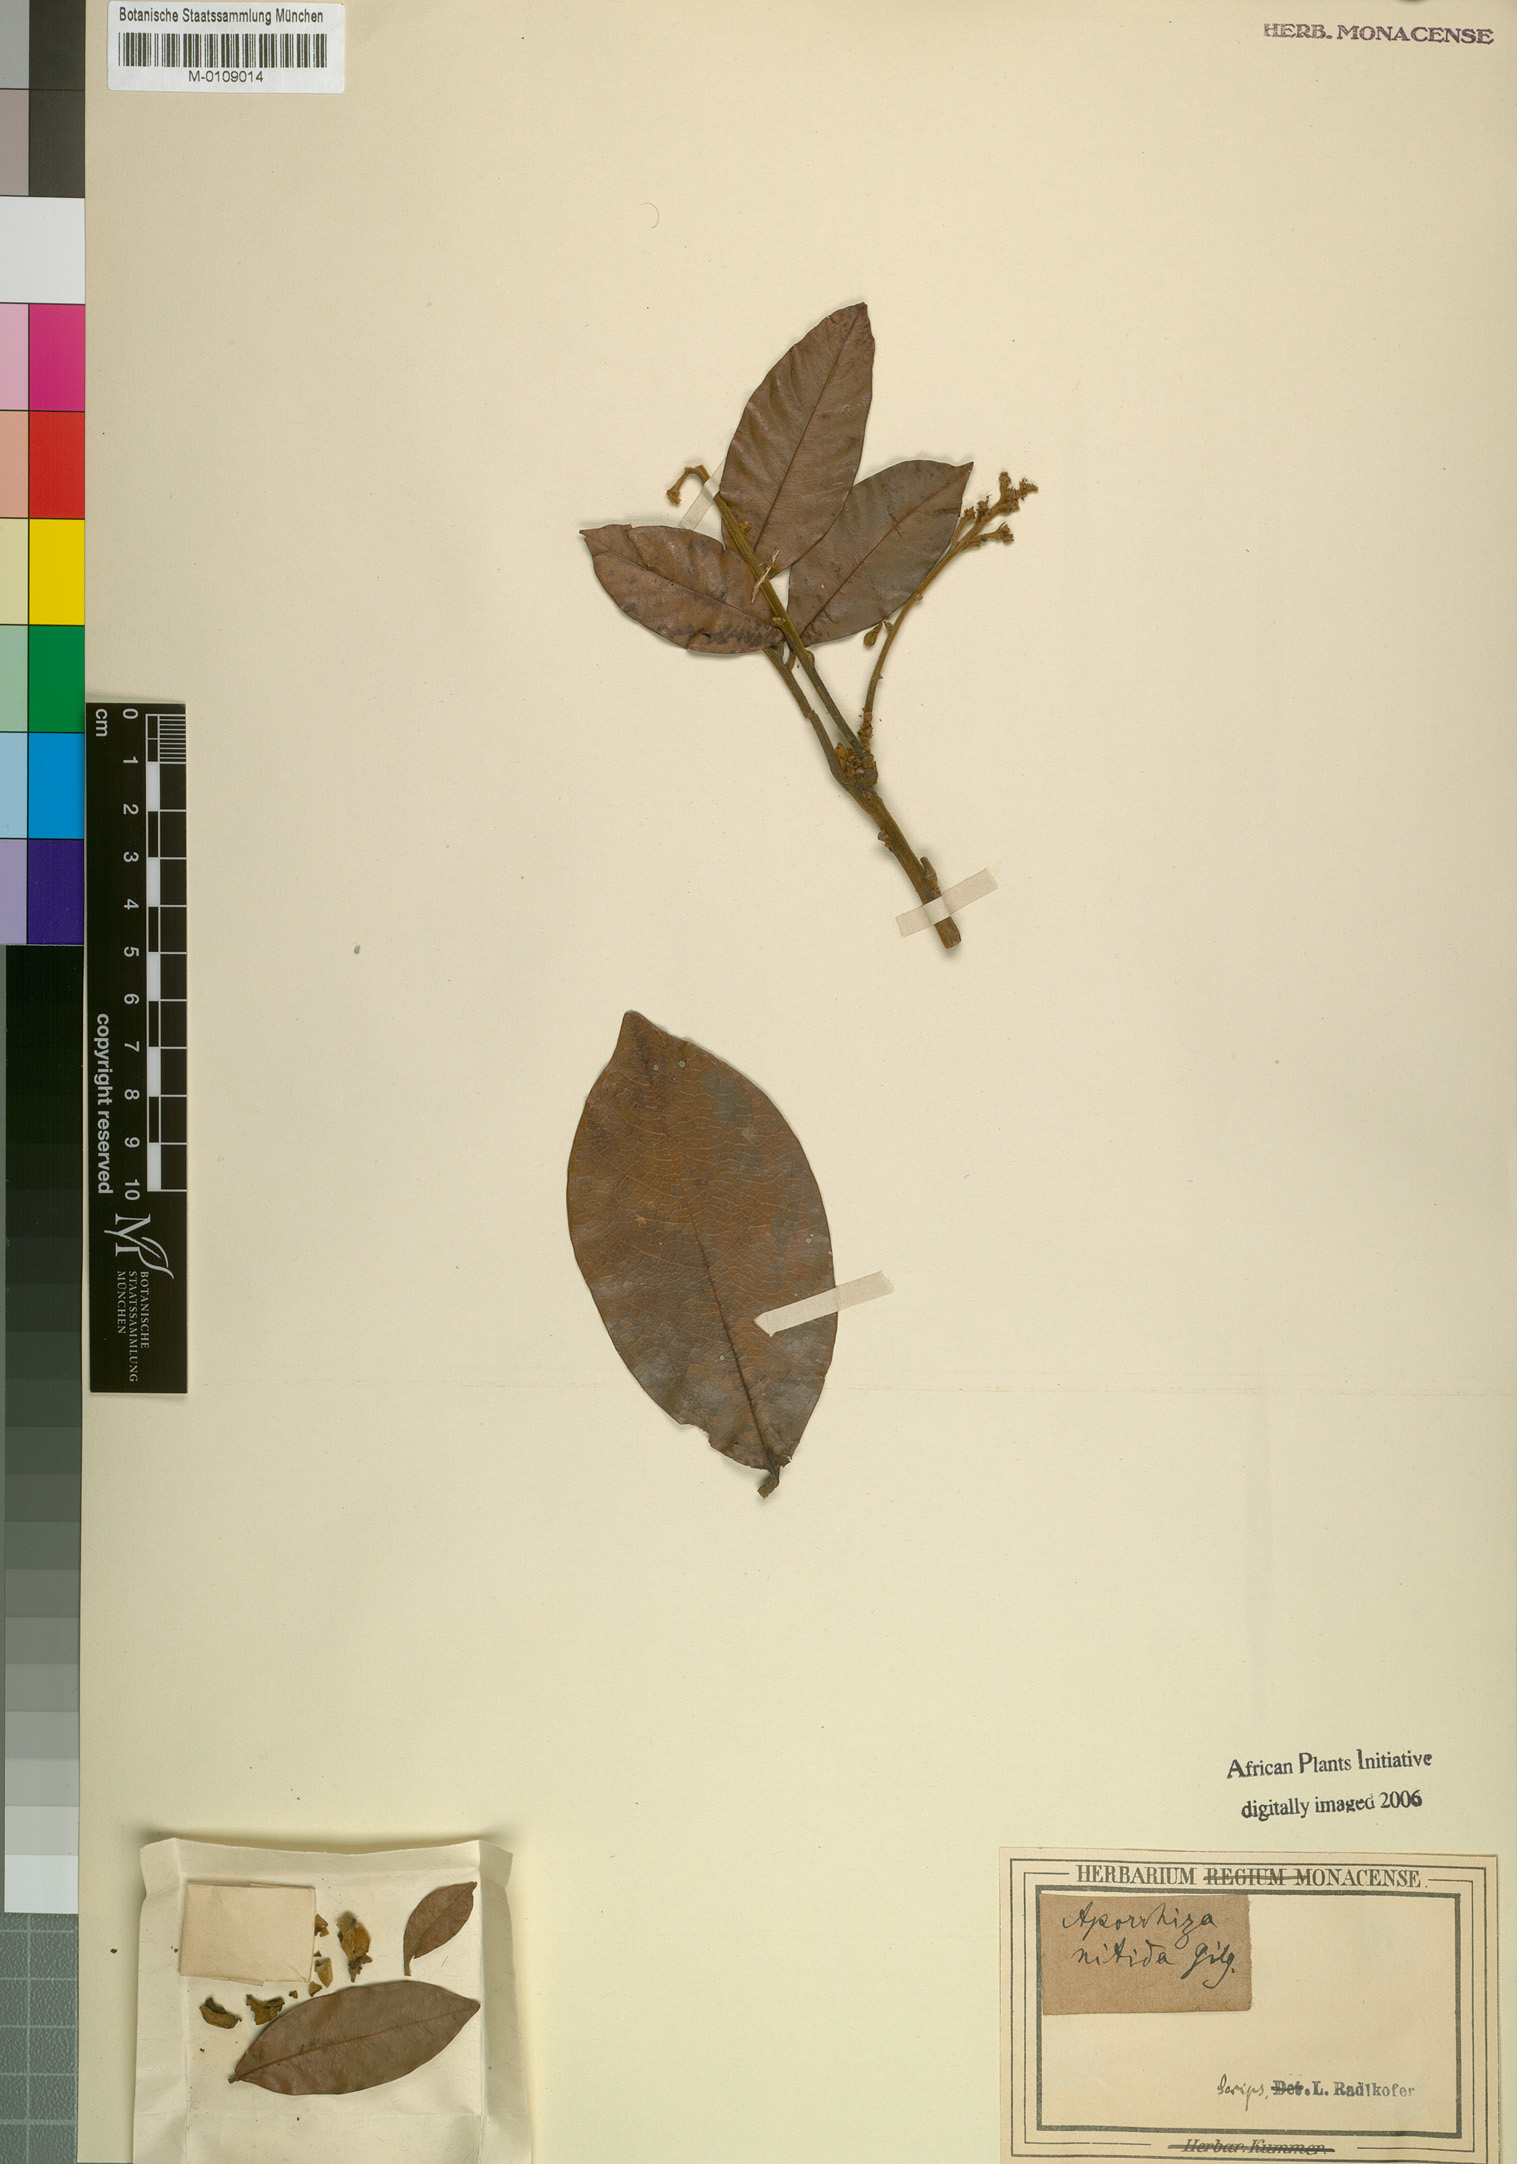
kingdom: Plantae
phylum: Tracheophyta
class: Magnoliopsida
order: Sapindales
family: Sapindaceae
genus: Aporrhiza
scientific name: Aporrhiza paniculata
